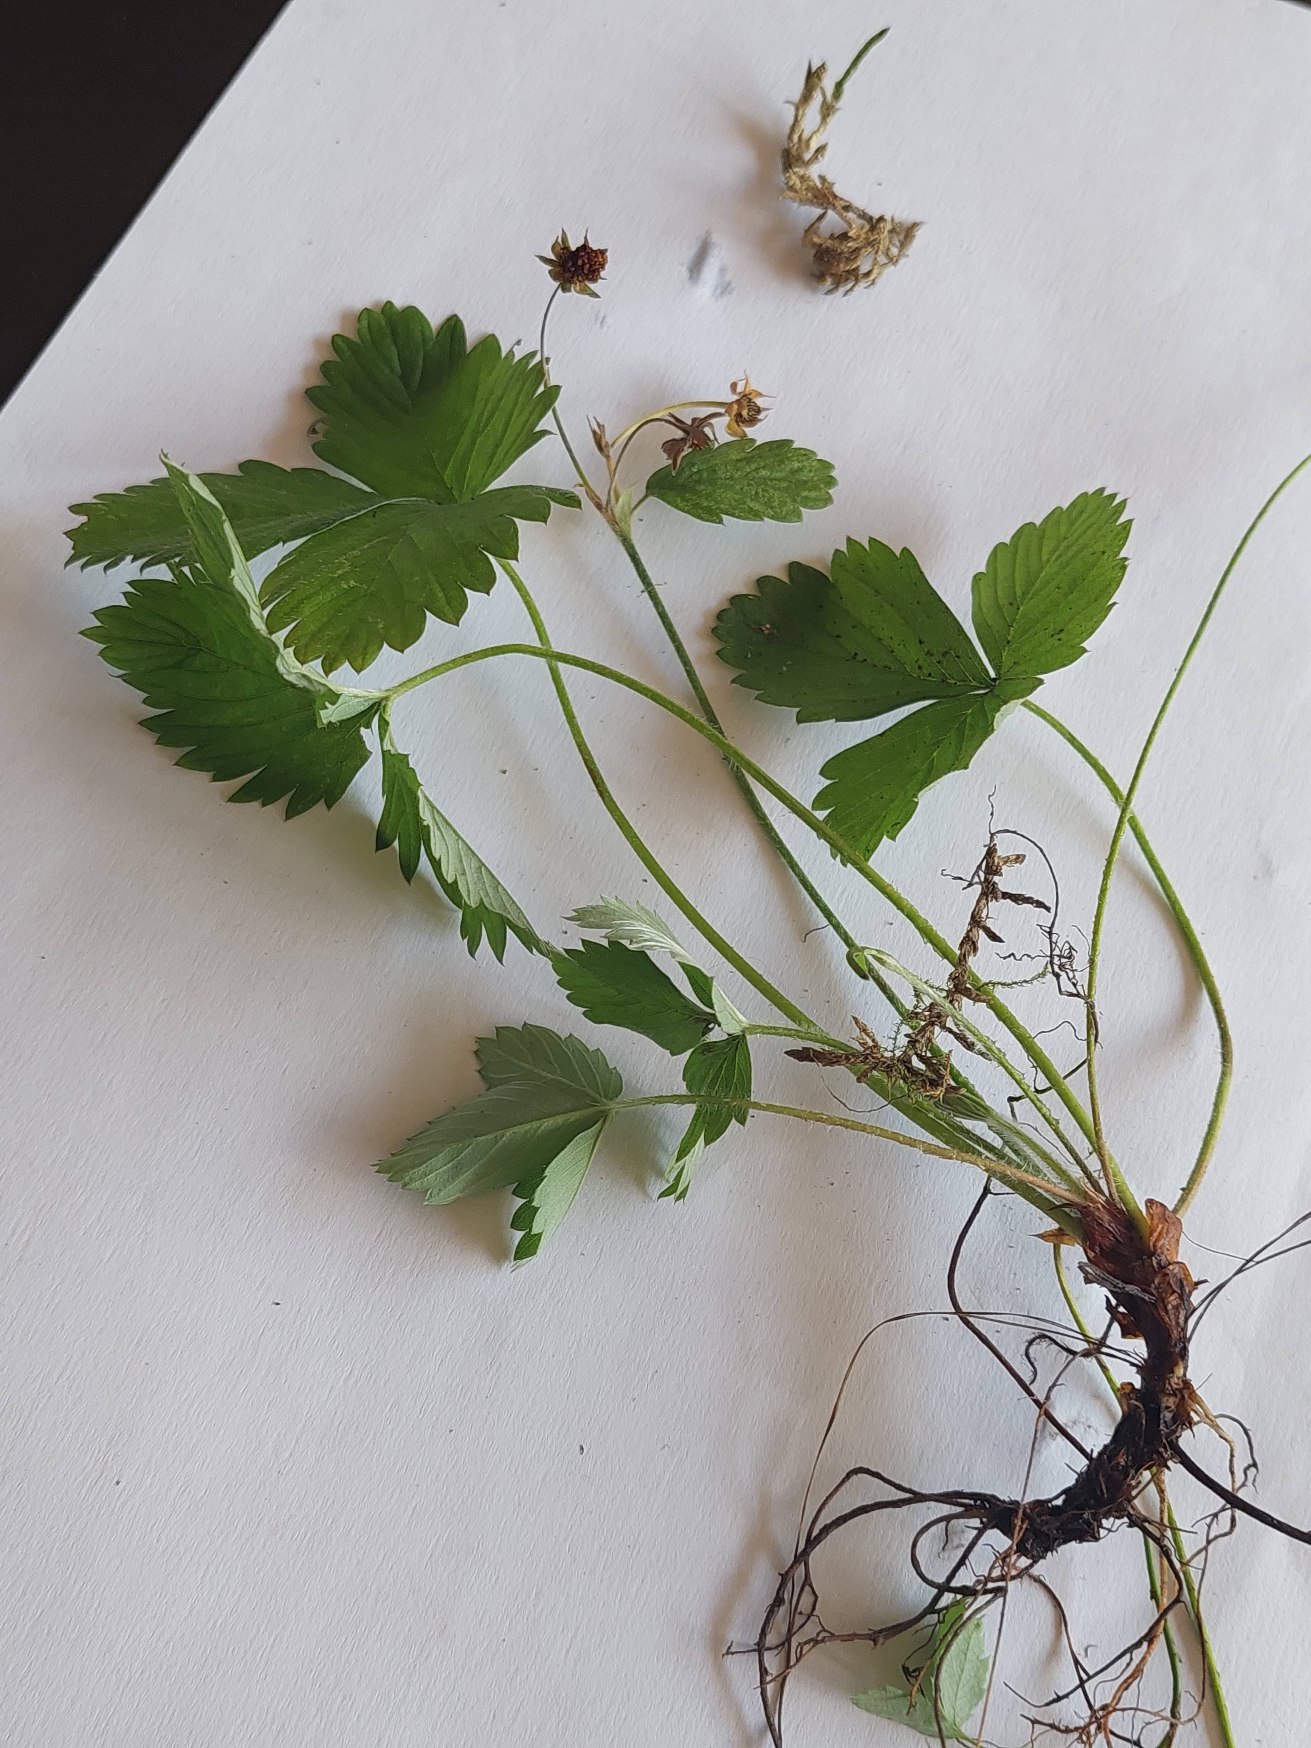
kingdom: Plantae
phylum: Tracheophyta
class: Magnoliopsida
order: Rosales
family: Rosaceae
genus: Fragaria
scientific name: Fragaria vesca
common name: Skov-jordbær
